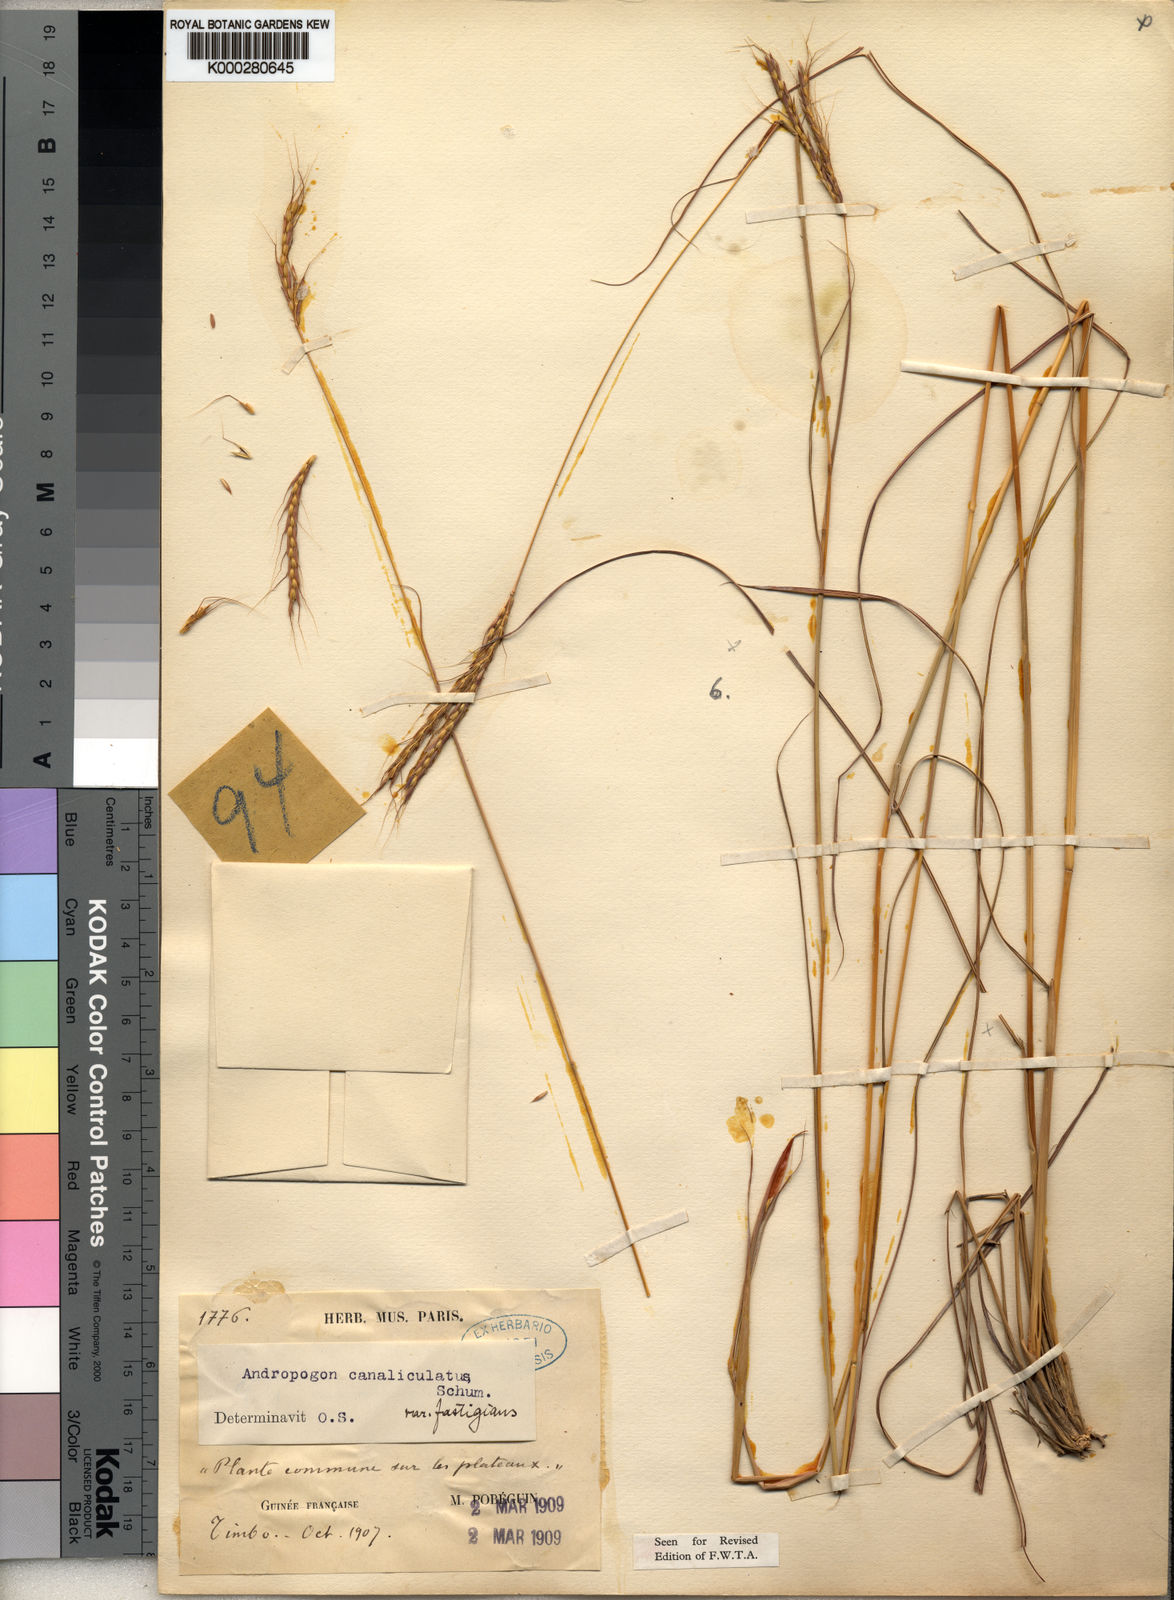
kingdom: Plantae
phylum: Tracheophyta
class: Liliopsida
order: Poales
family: Poaceae
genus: Andropogon
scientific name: Andropogon canaliculatus
